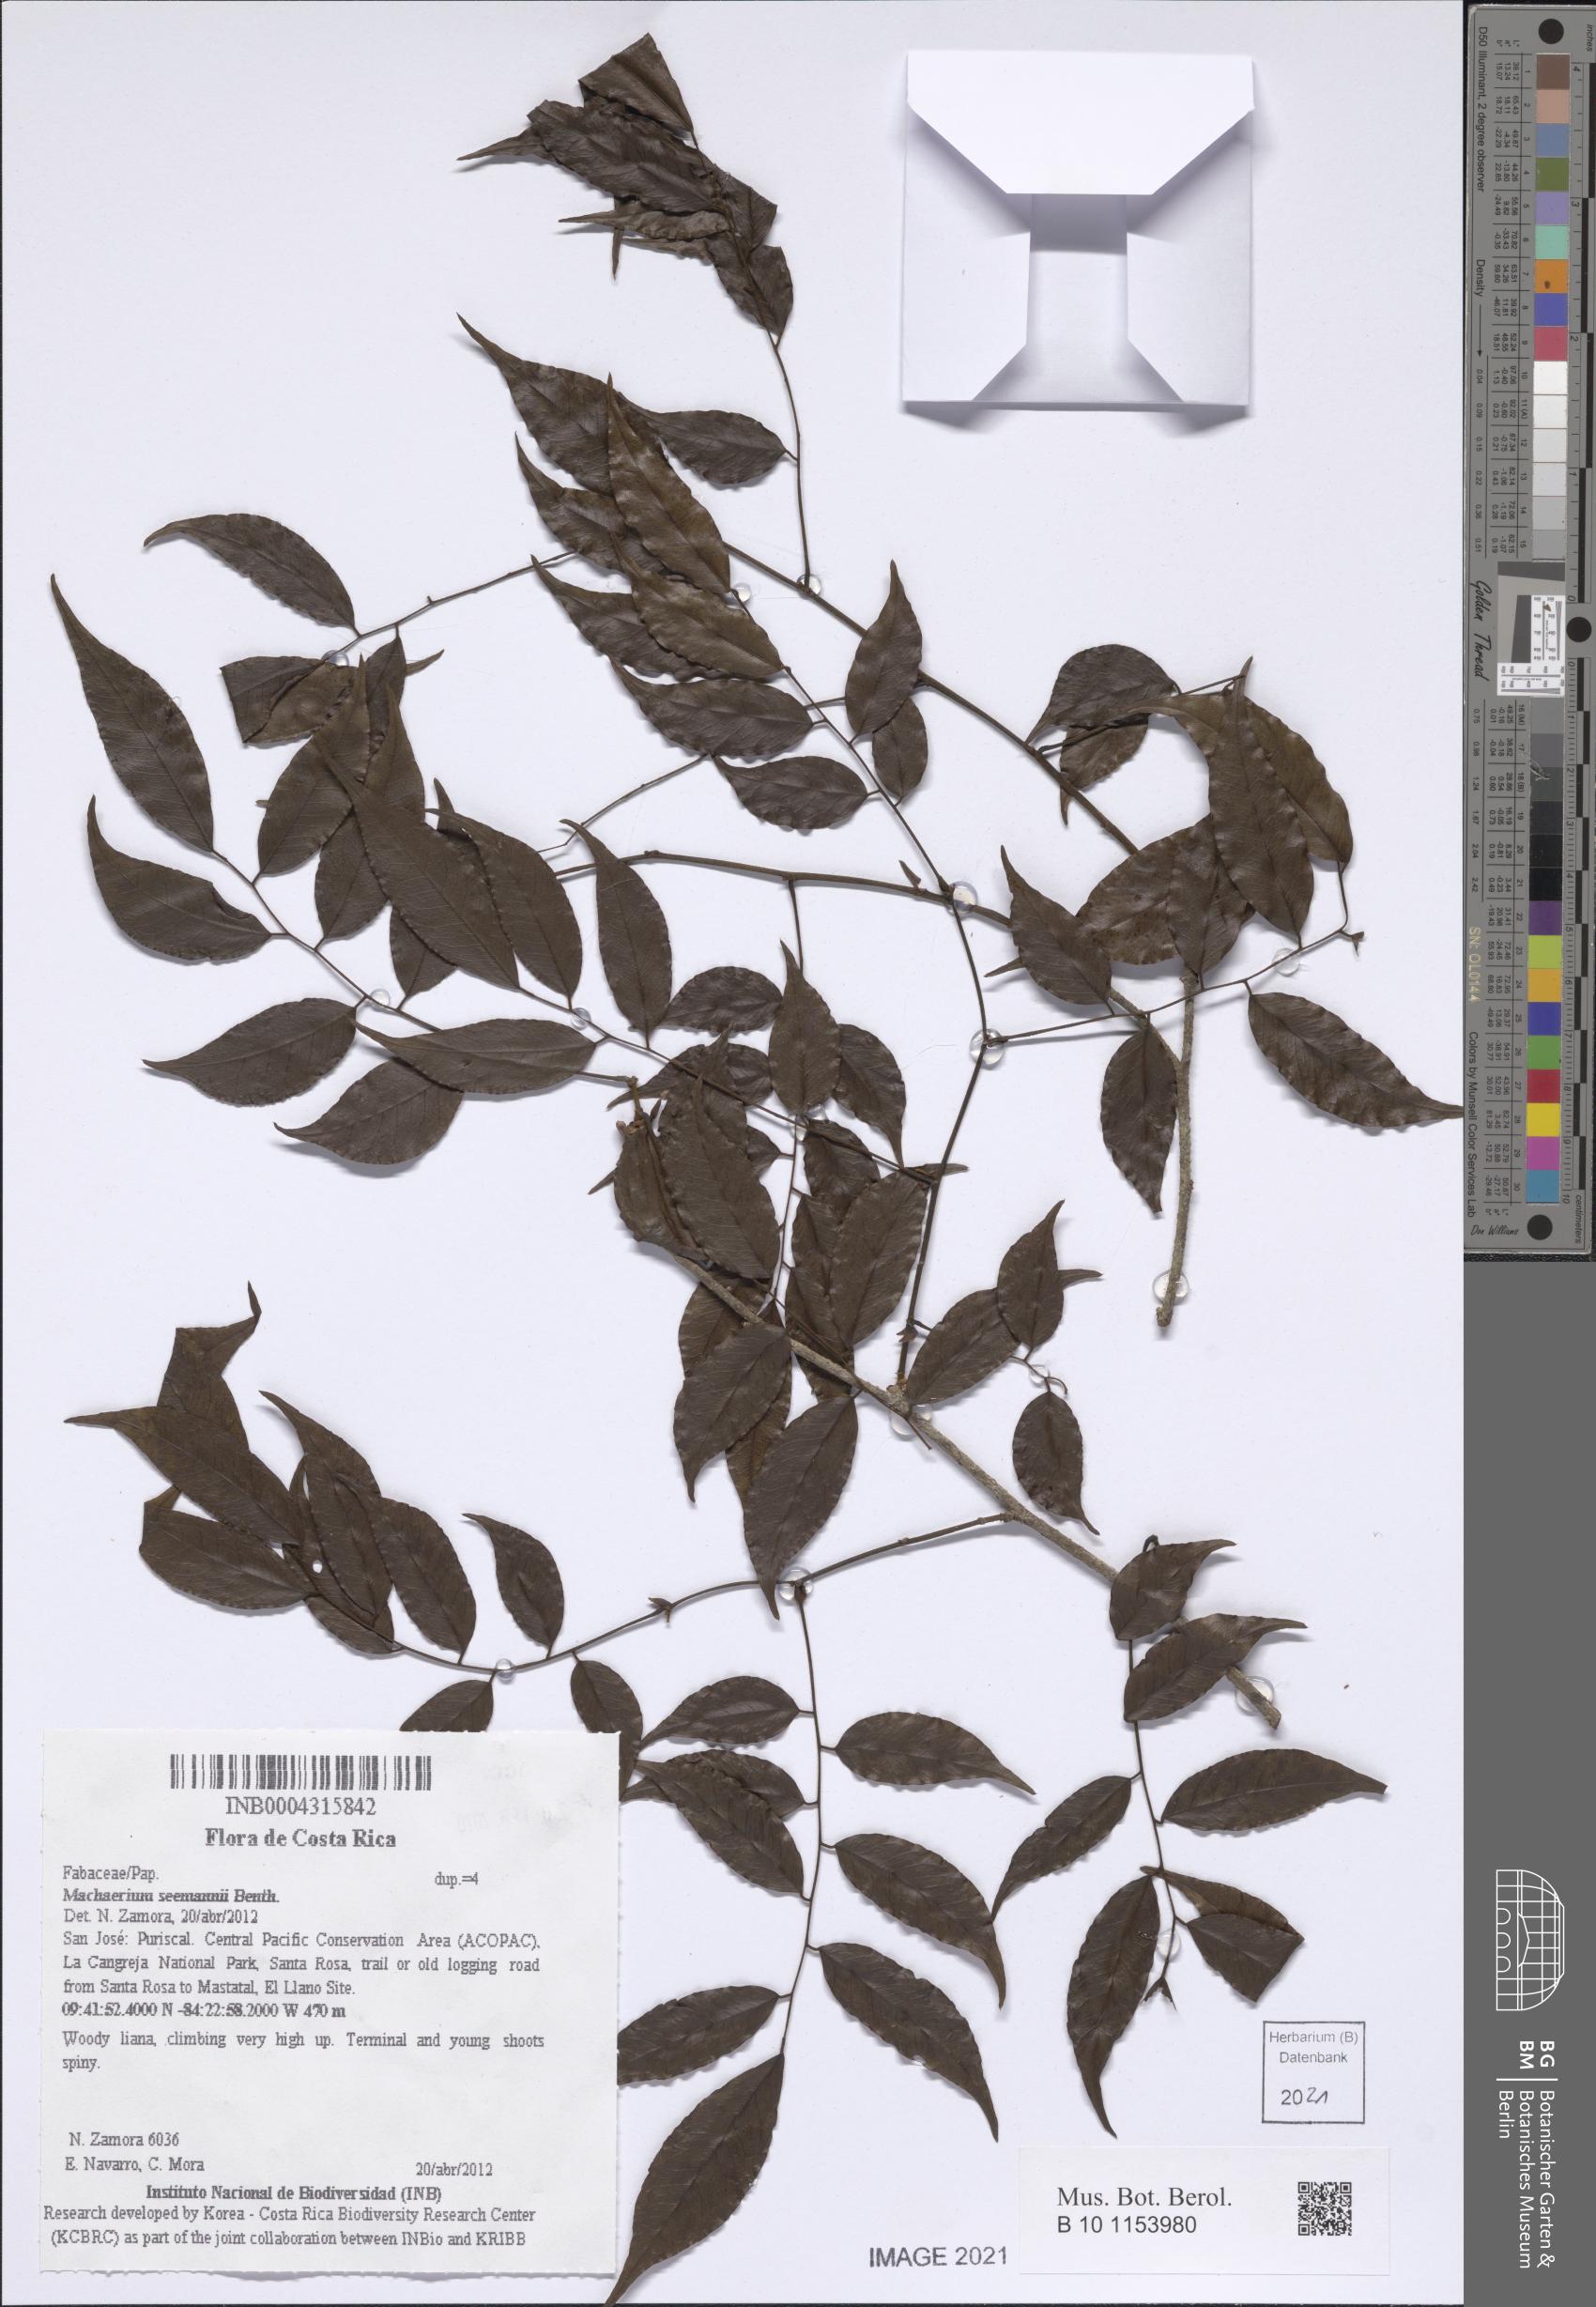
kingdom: Plantae
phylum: Tracheophyta
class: Magnoliopsida
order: Fabales
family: Fabaceae
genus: Machaerium
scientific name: Machaerium seemannii
